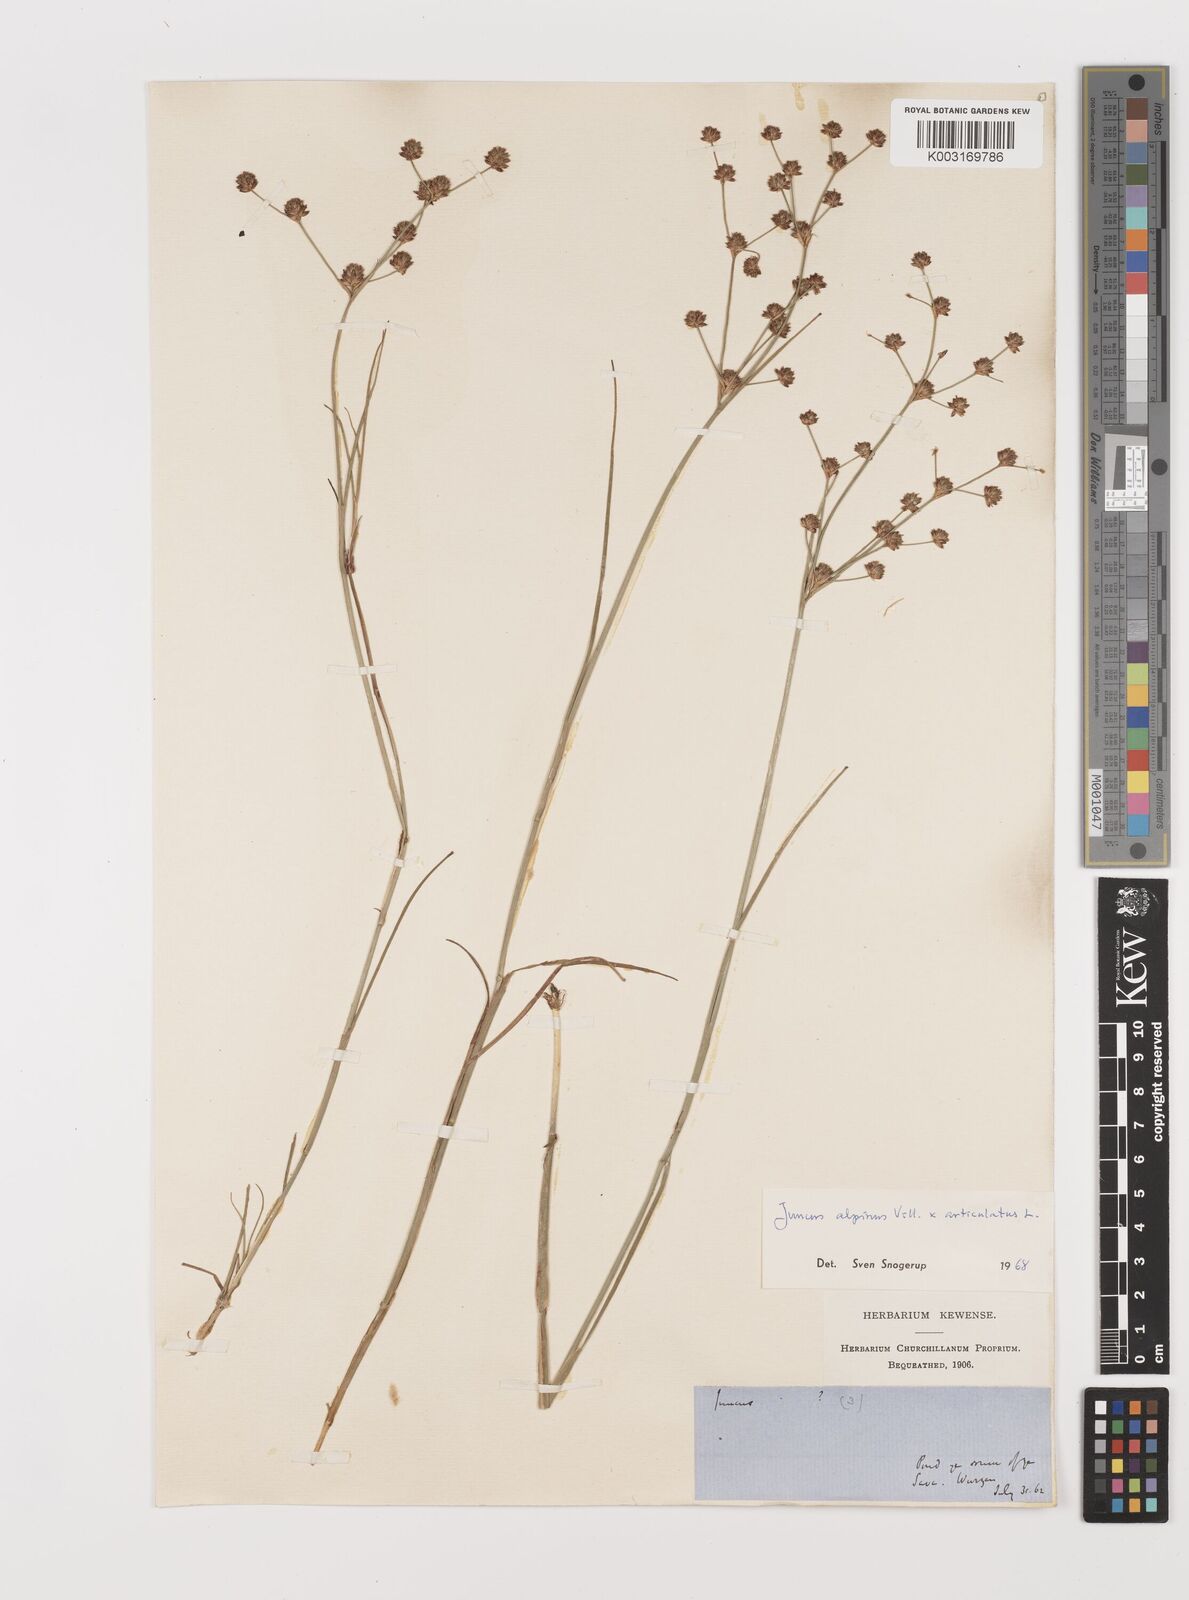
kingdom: Plantae
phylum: Tracheophyta
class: Liliopsida
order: Poales
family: Juncaceae
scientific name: Juncaceae
